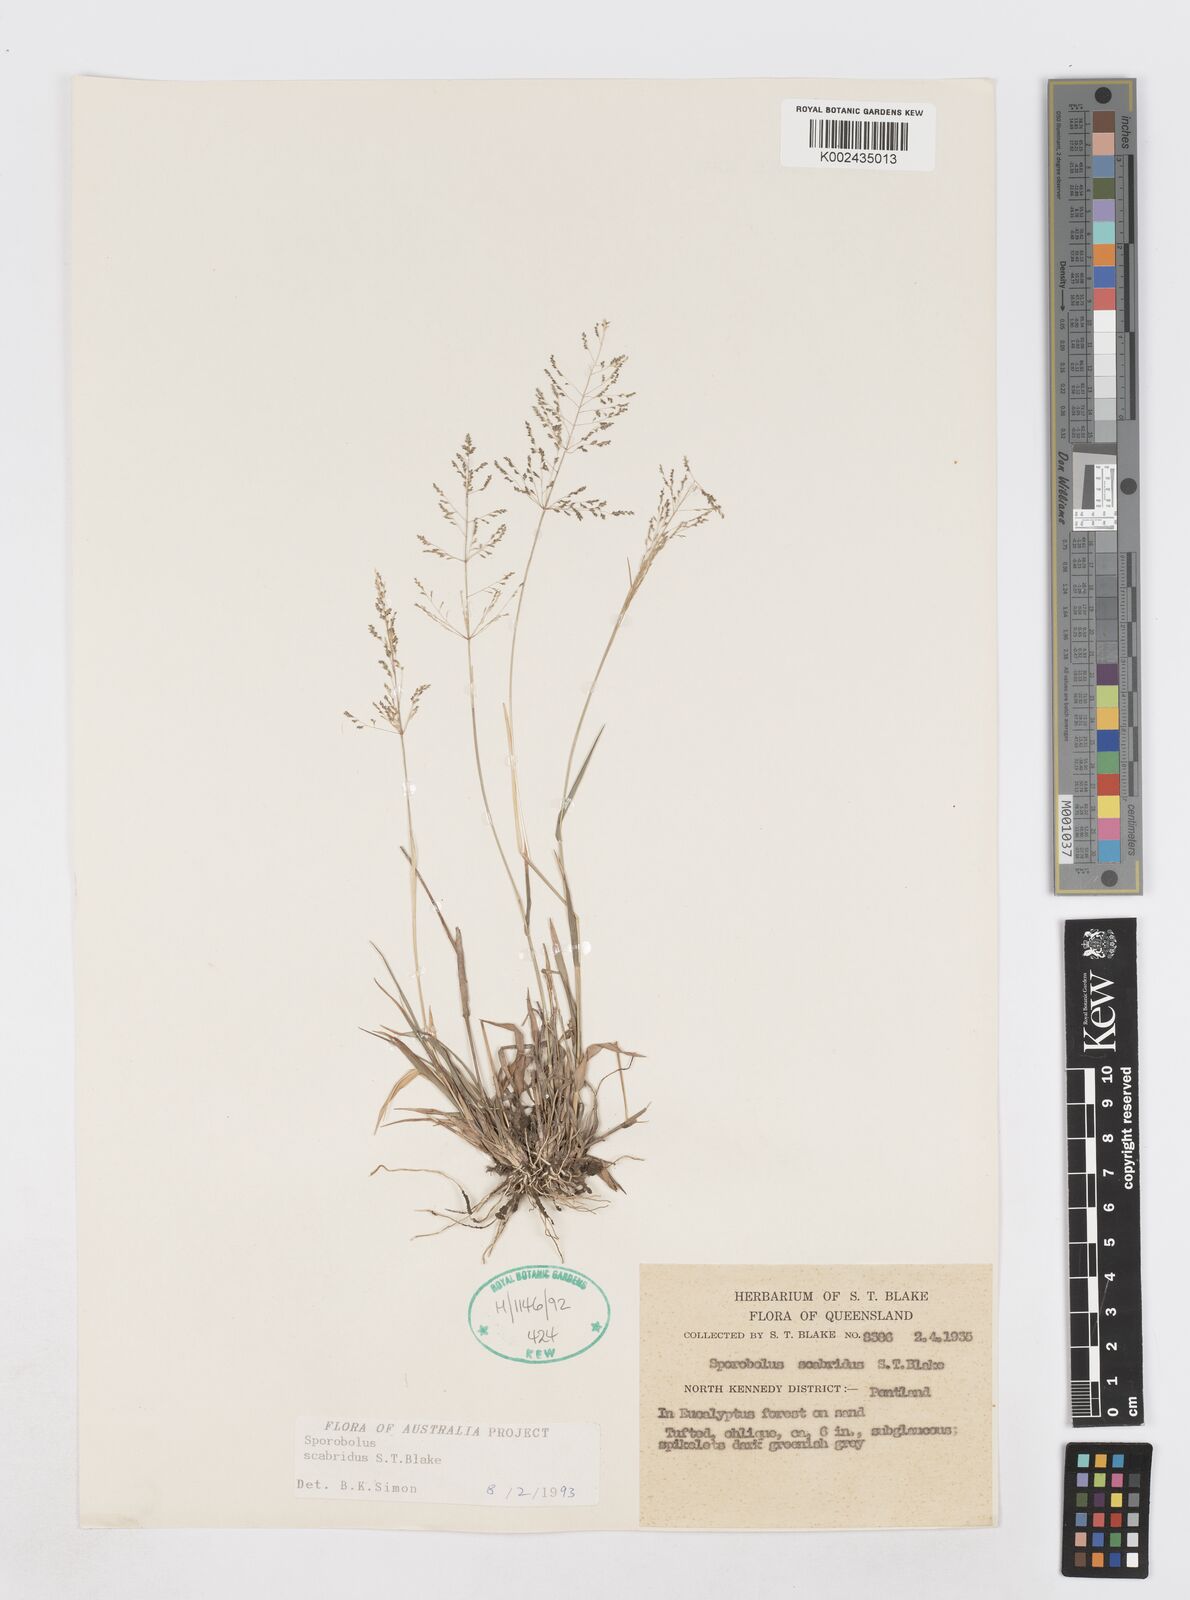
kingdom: Plantae
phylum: Tracheophyta
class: Liliopsida
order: Poales
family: Poaceae
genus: Sporobolus
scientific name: Sporobolus scabridus
